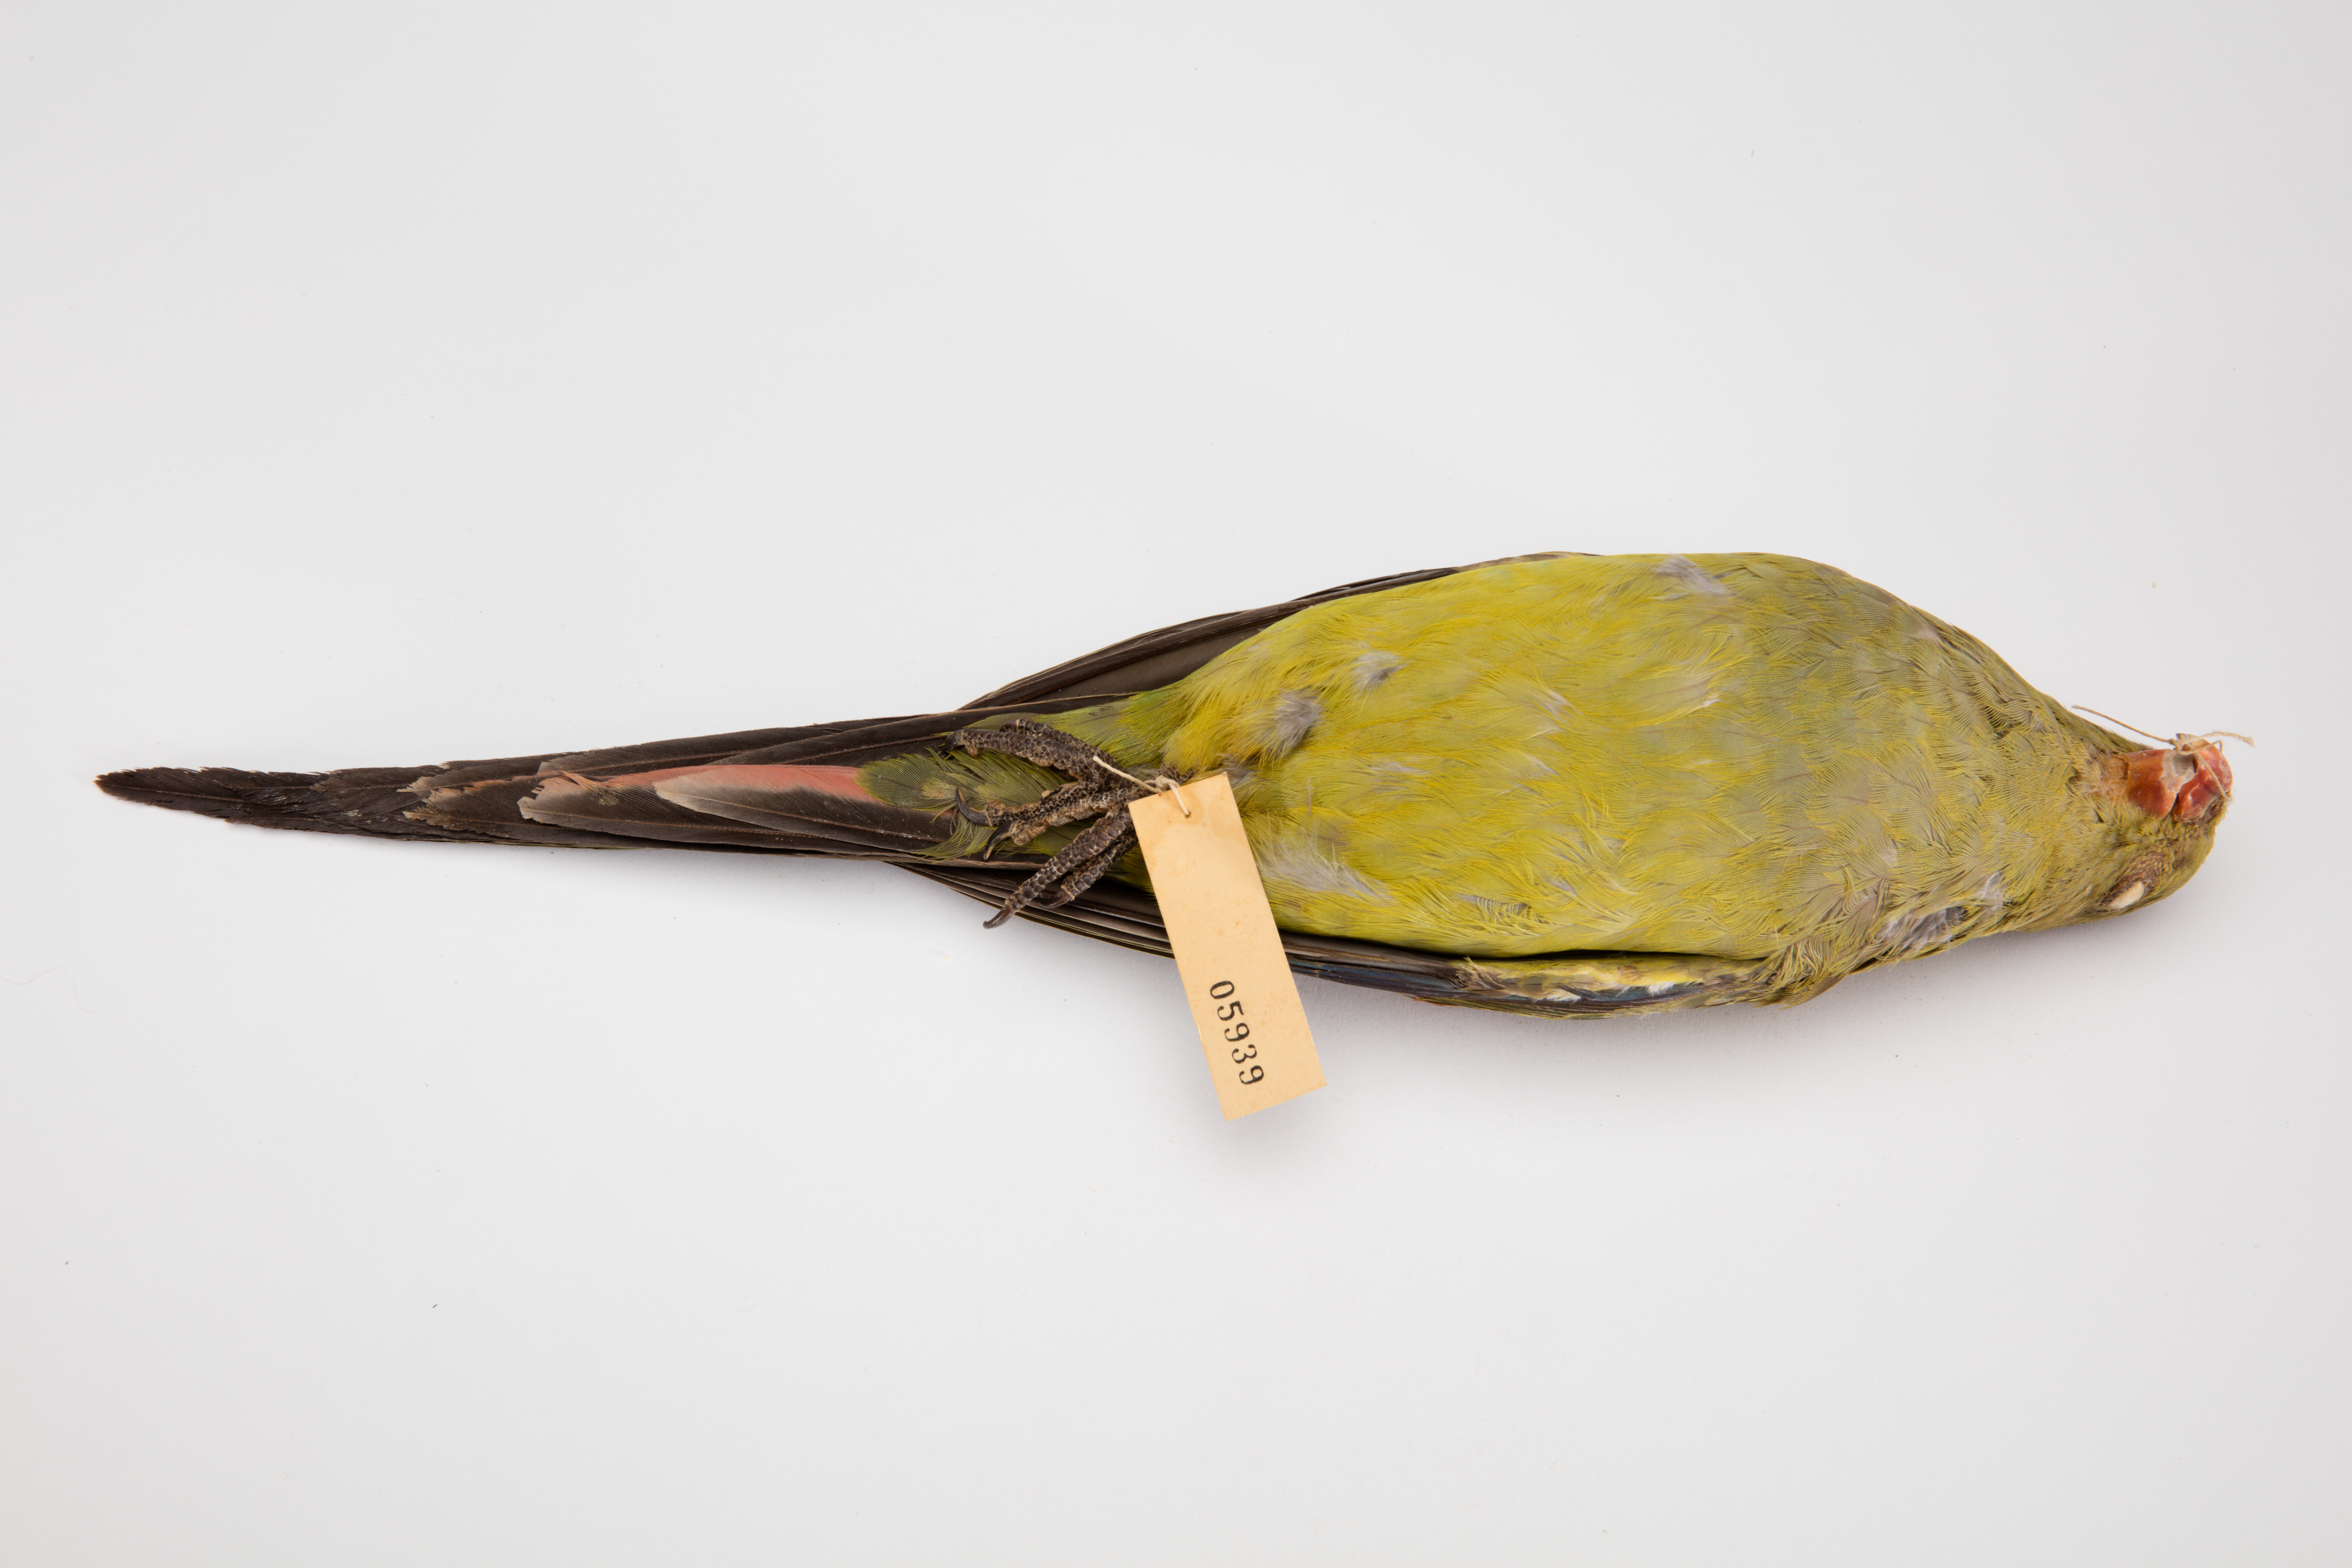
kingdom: Animalia
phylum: Chordata
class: Aves
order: Psittaciformes
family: Psittacidae
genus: Polytelis
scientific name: Polytelis anthopeplus
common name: Regent parrot
